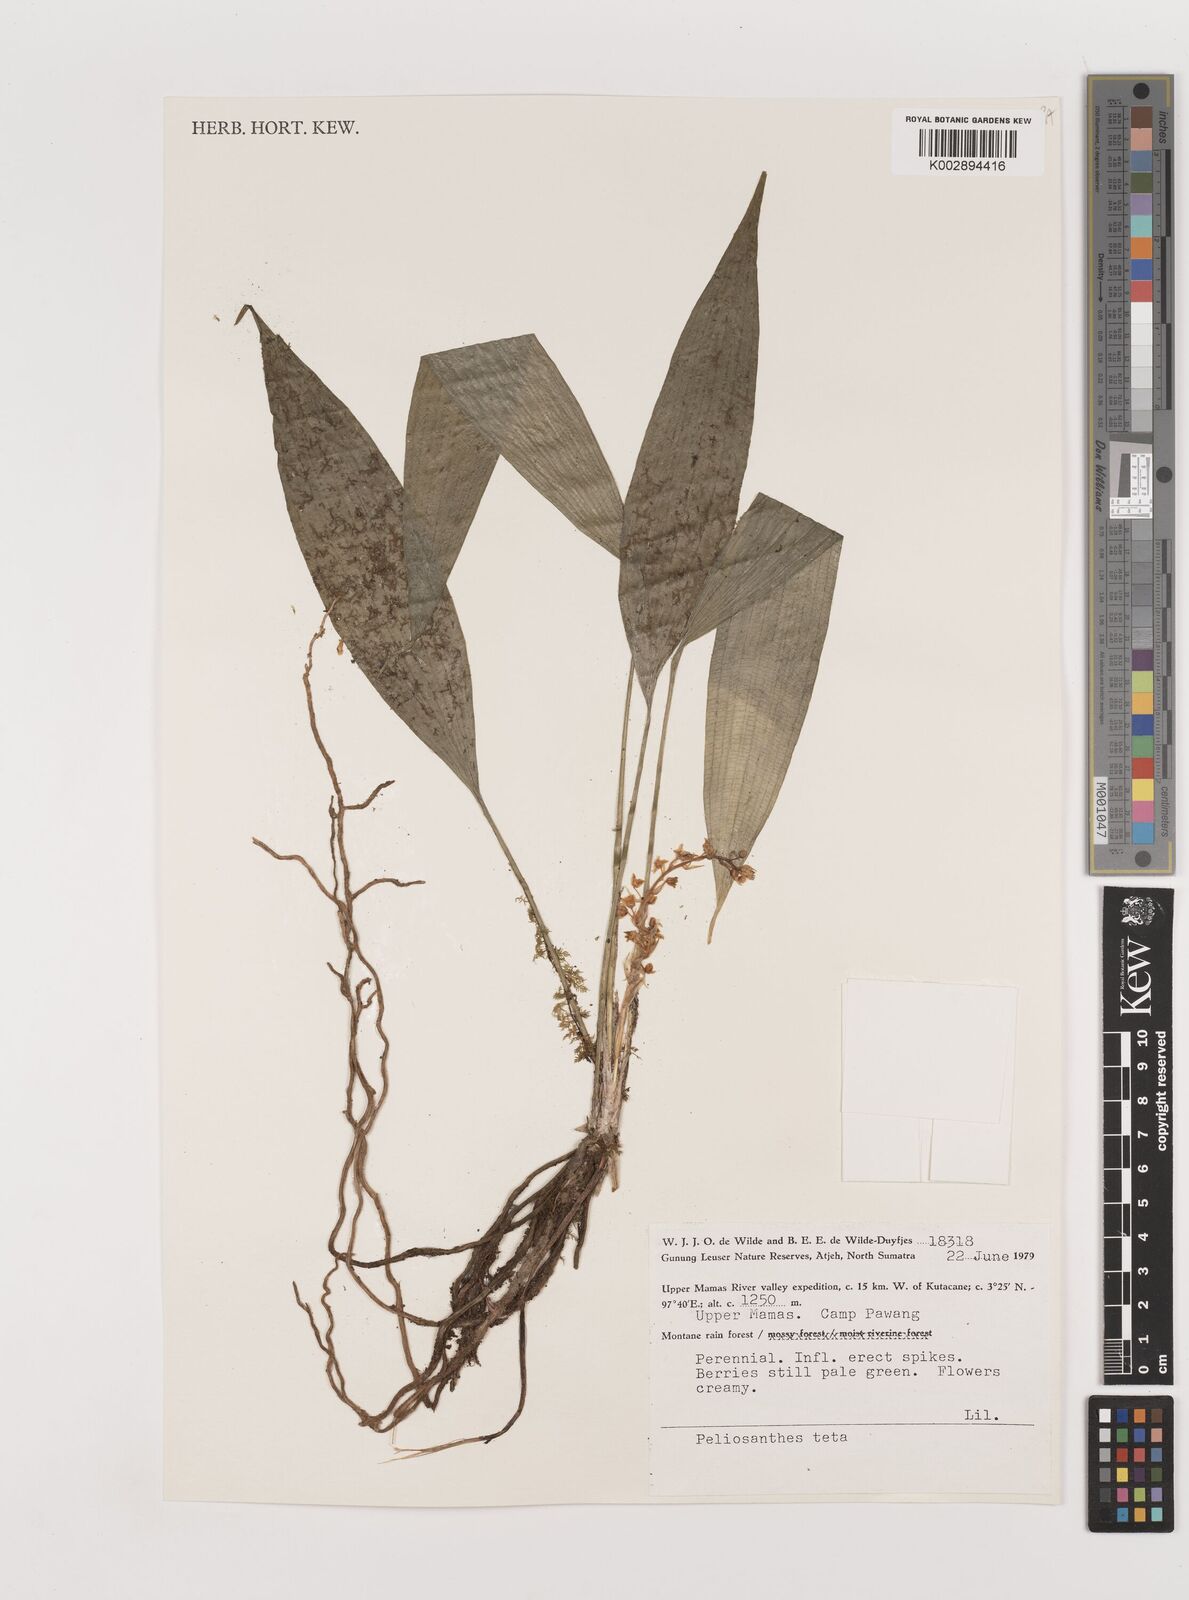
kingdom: Plantae
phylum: Tracheophyta
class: Liliopsida
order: Asparagales
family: Asparagaceae
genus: Peliosanthes
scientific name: Peliosanthes teta
